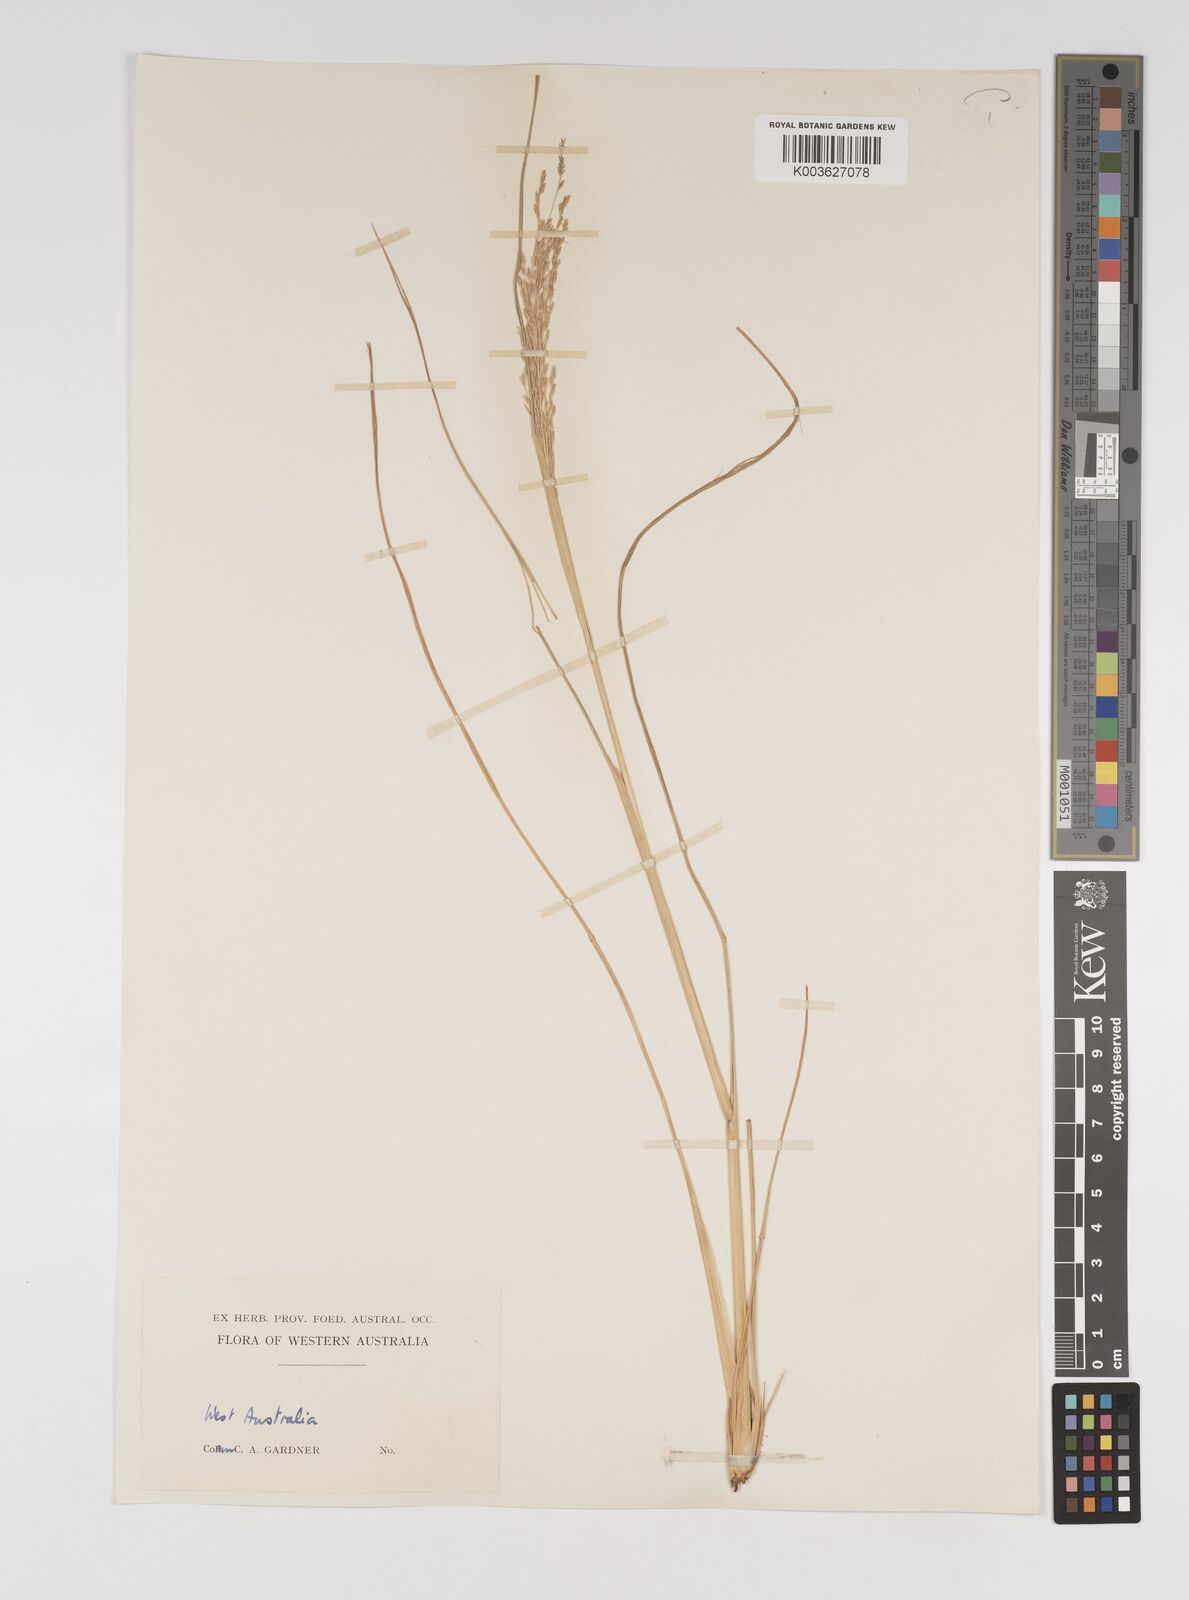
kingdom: Plantae
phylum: Tracheophyta
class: Liliopsida
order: Poales
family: Poaceae
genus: Diplachne
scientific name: Diplachne fusca
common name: Brown beetle grass
